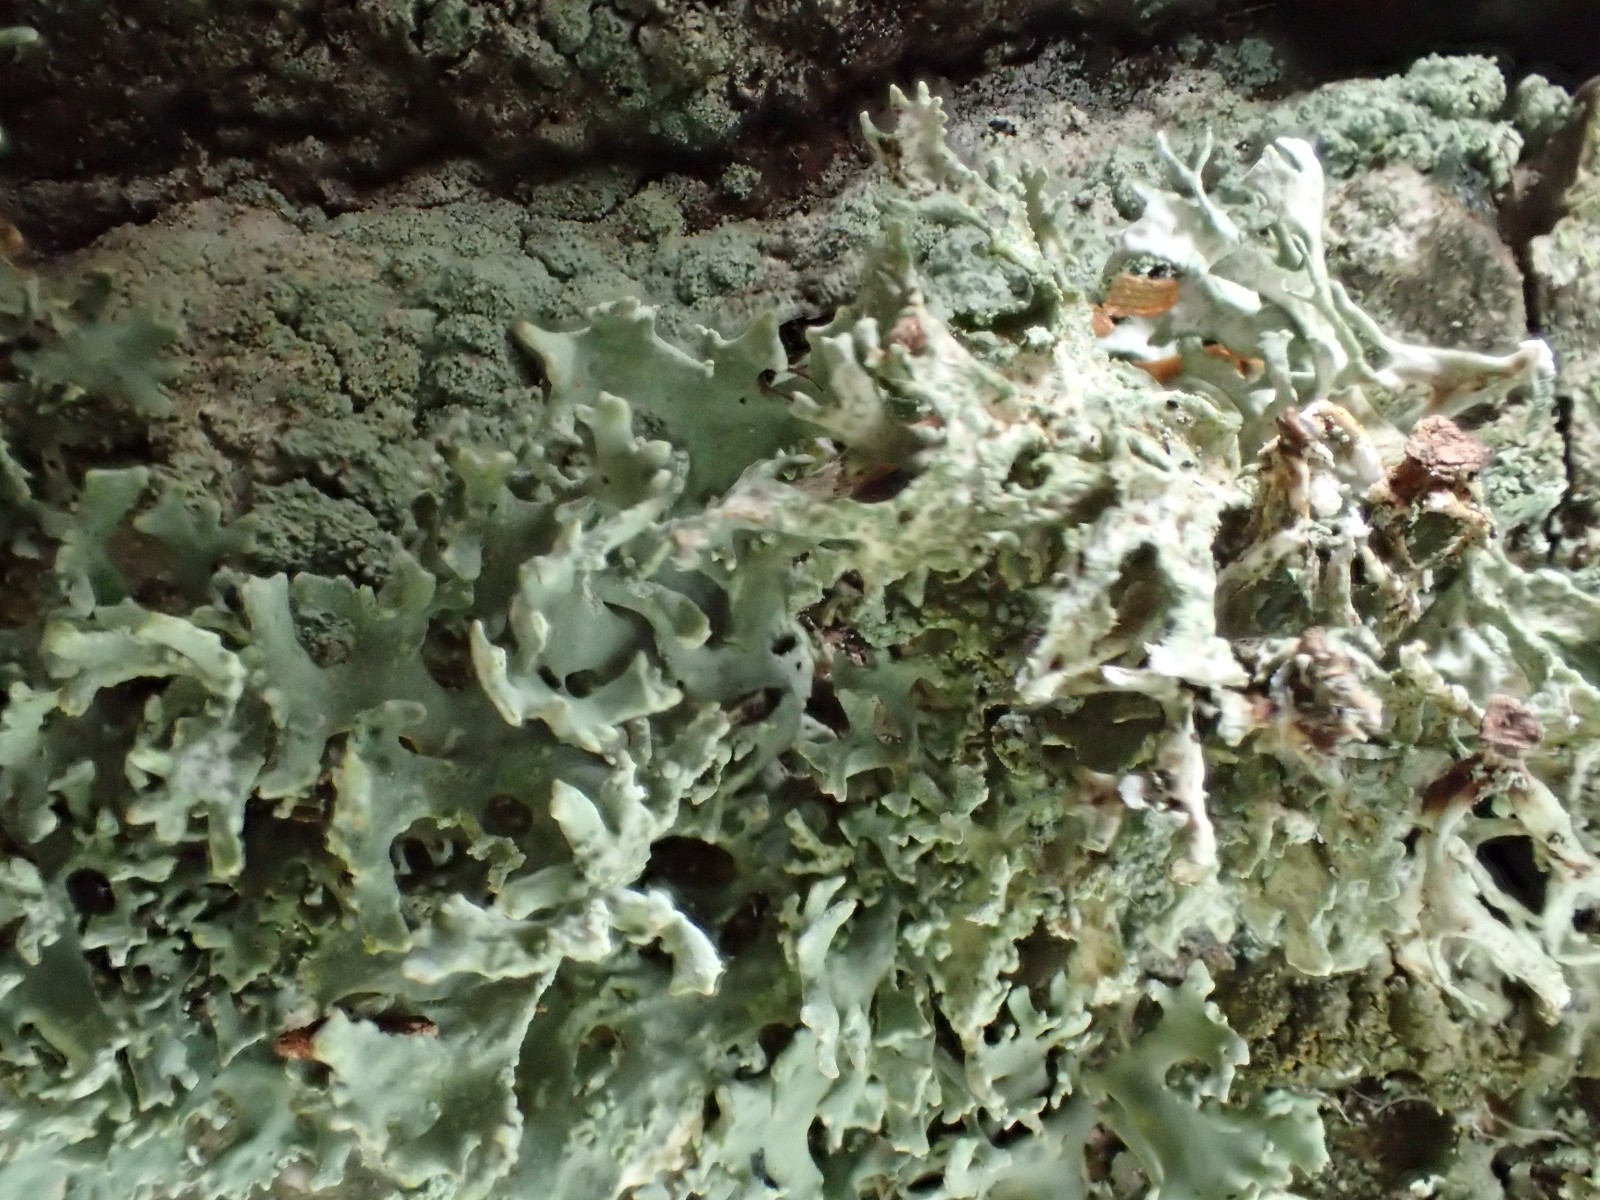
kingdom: Fungi
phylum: Ascomycota
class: Lecanoromycetes
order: Lecanorales
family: Parmeliaceae
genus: Evernia
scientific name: Evernia prunastri
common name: almindelig slåenlav
